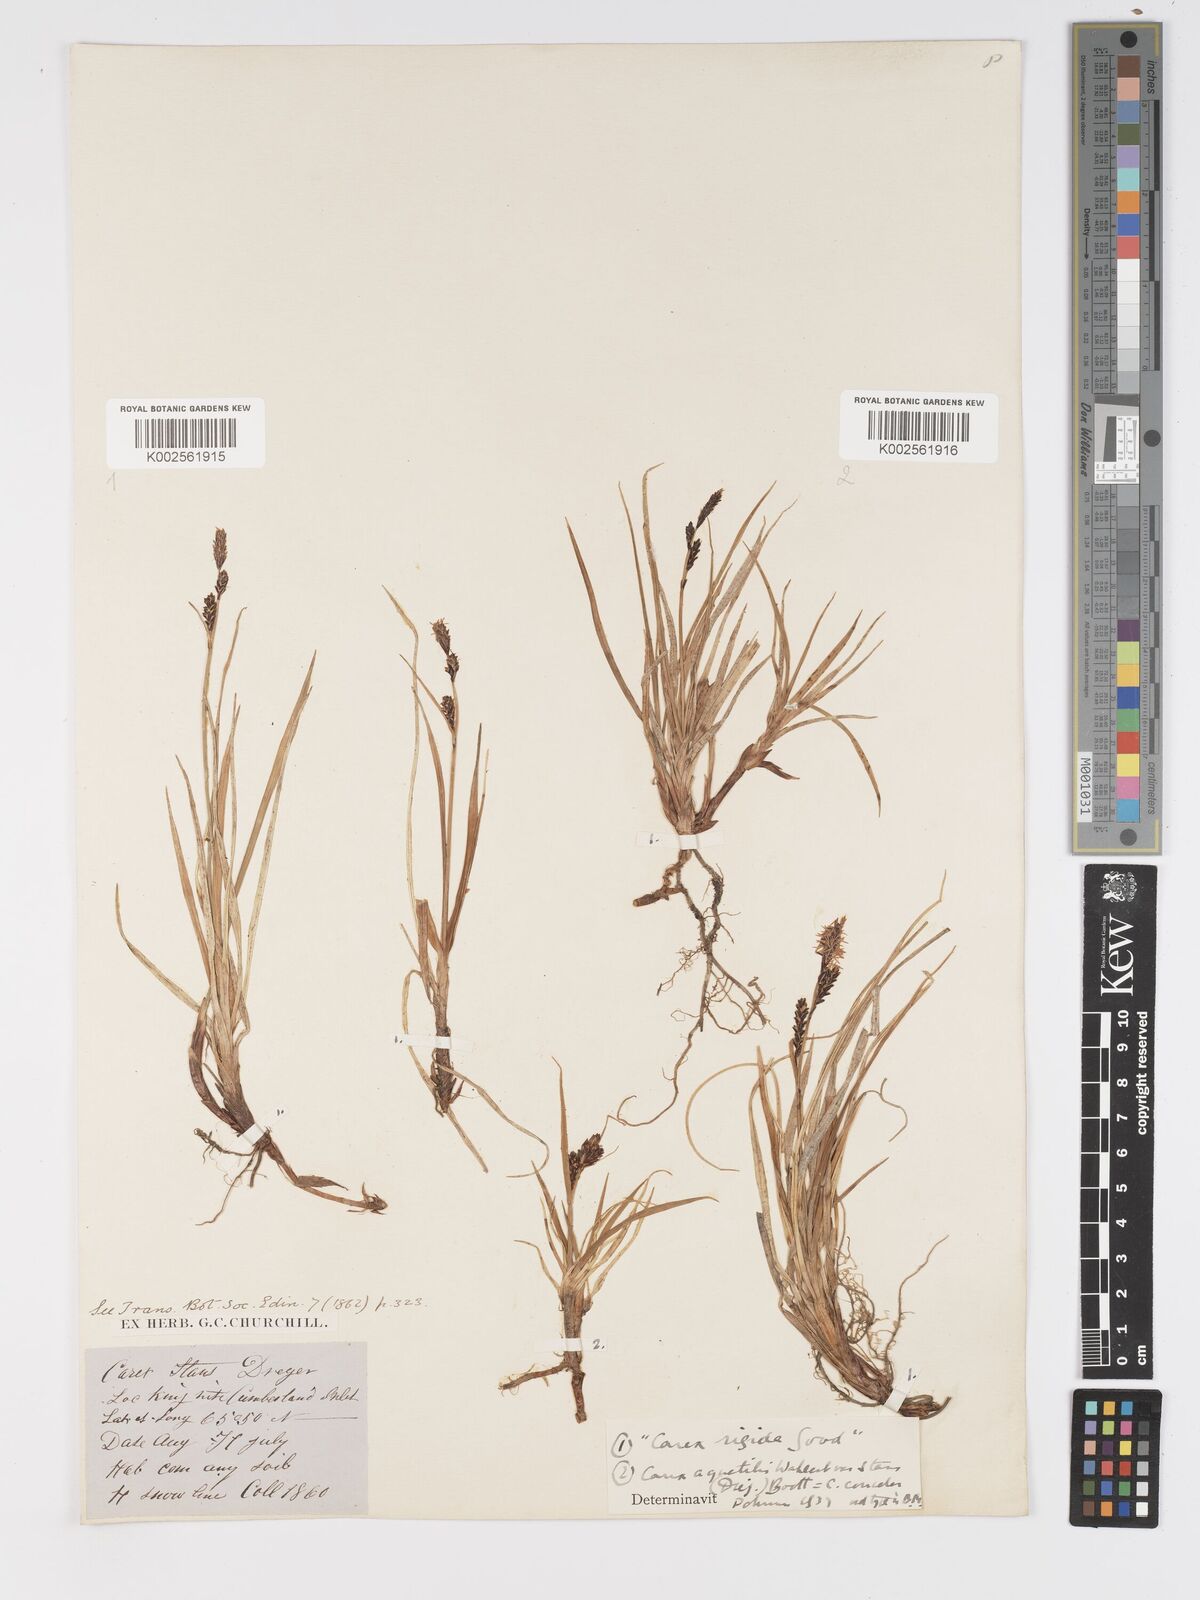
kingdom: Plantae
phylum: Tracheophyta
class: Liliopsida
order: Poales
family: Cyperaceae
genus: Carex
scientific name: Carex bigelowii
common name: Stiff sedge
